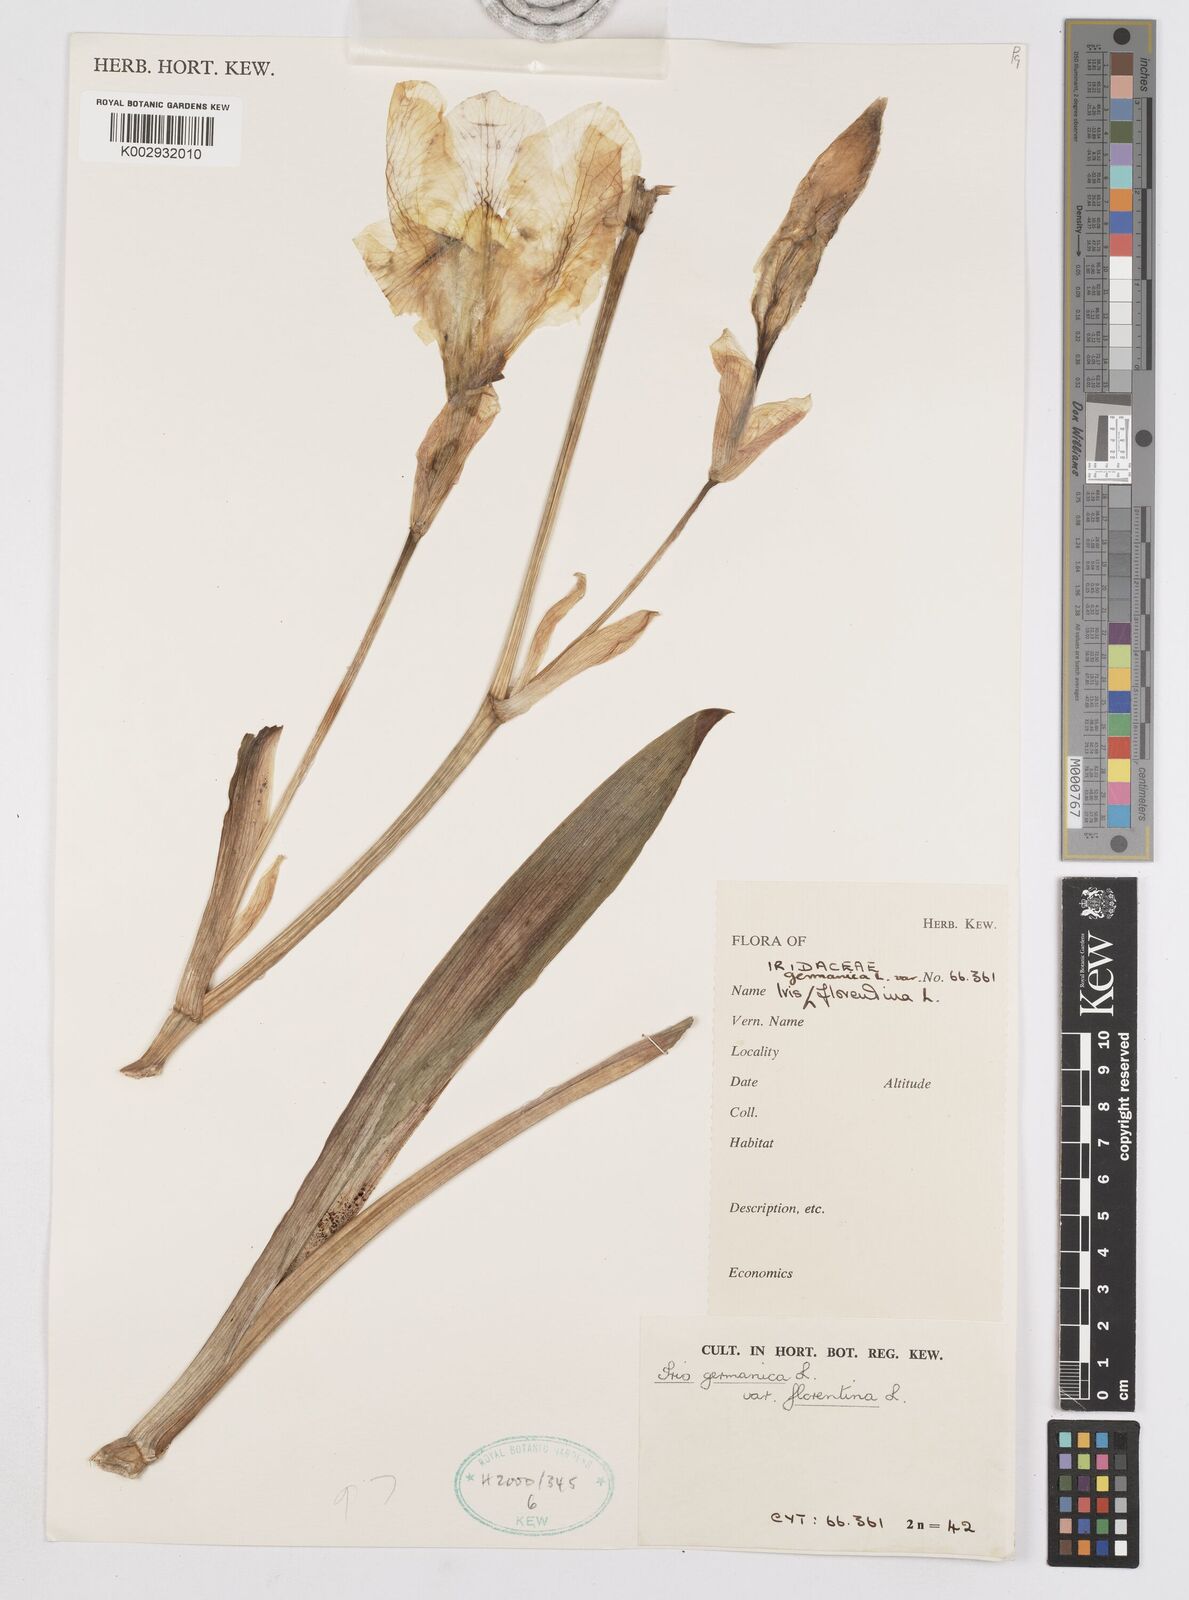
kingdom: Plantae
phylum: Tracheophyta
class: Liliopsida
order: Asparagales
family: Iridaceae
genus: Iris
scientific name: Iris germanica
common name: German iris
